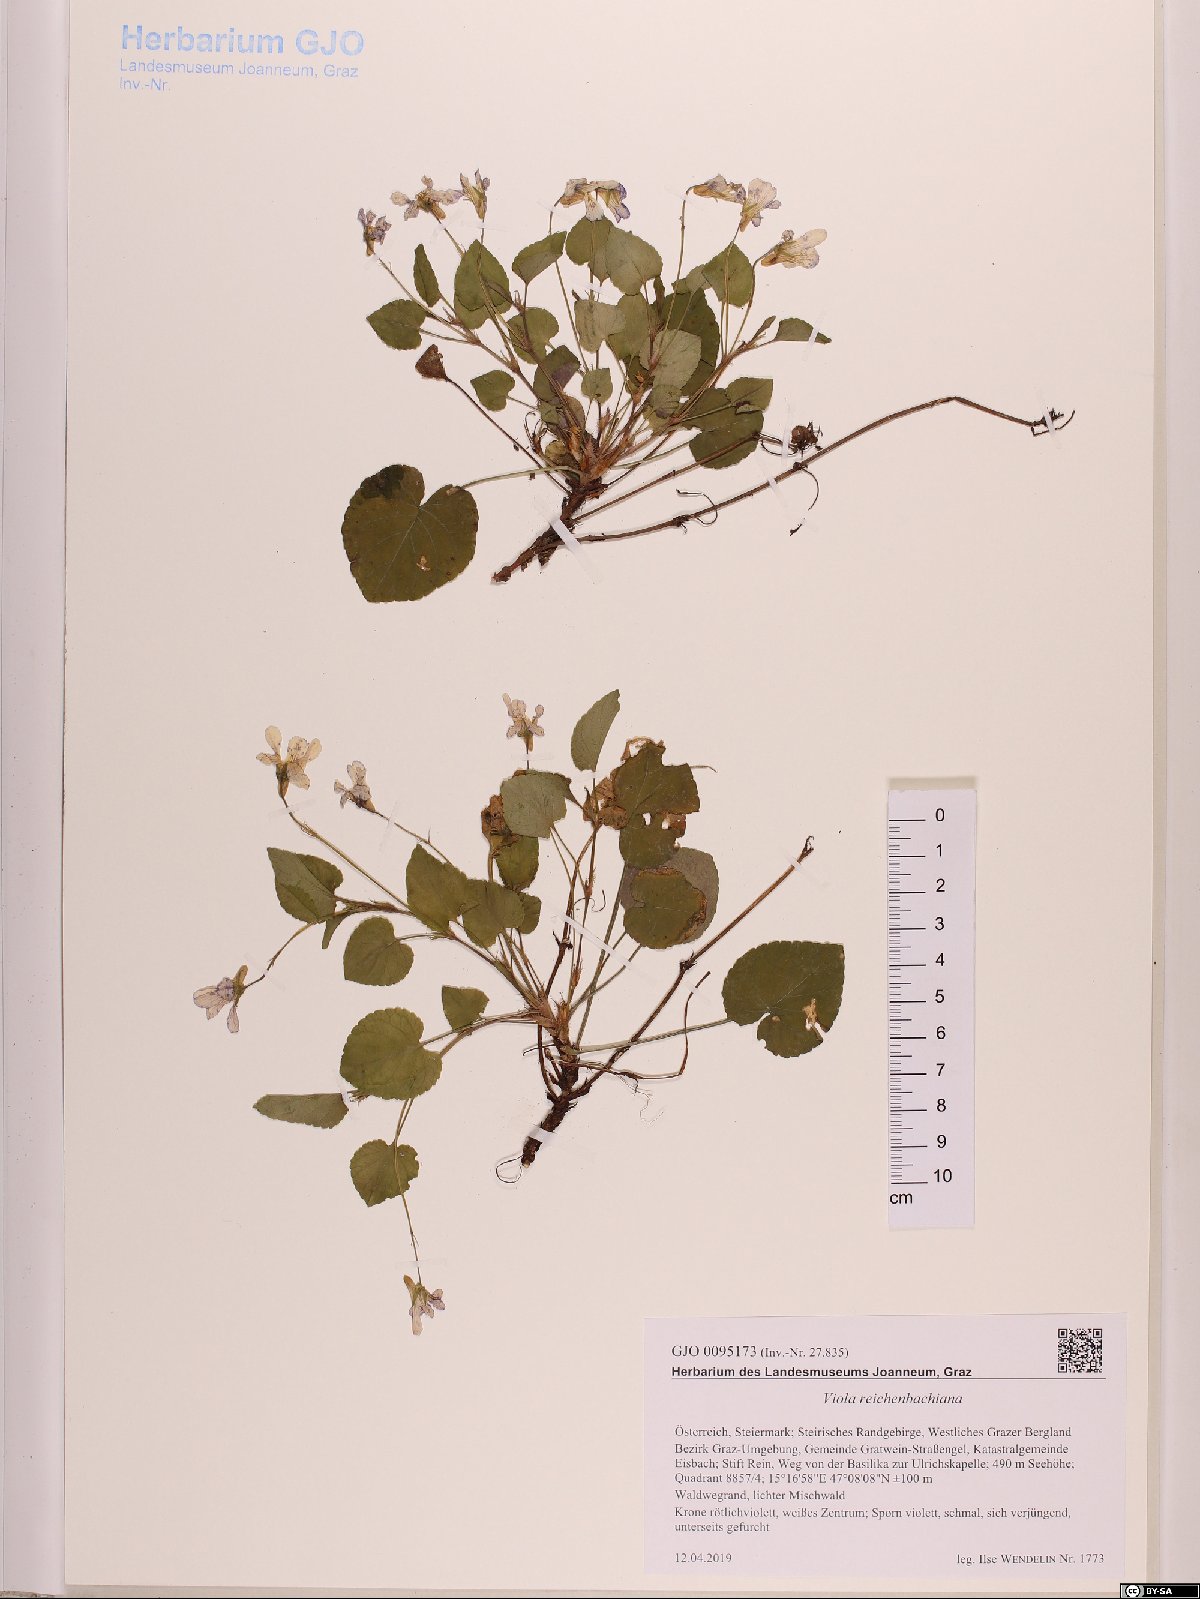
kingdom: Plantae
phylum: Tracheophyta
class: Magnoliopsida
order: Malpighiales
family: Violaceae
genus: Viola
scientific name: Viola reichenbachiana
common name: Early dog-violet
